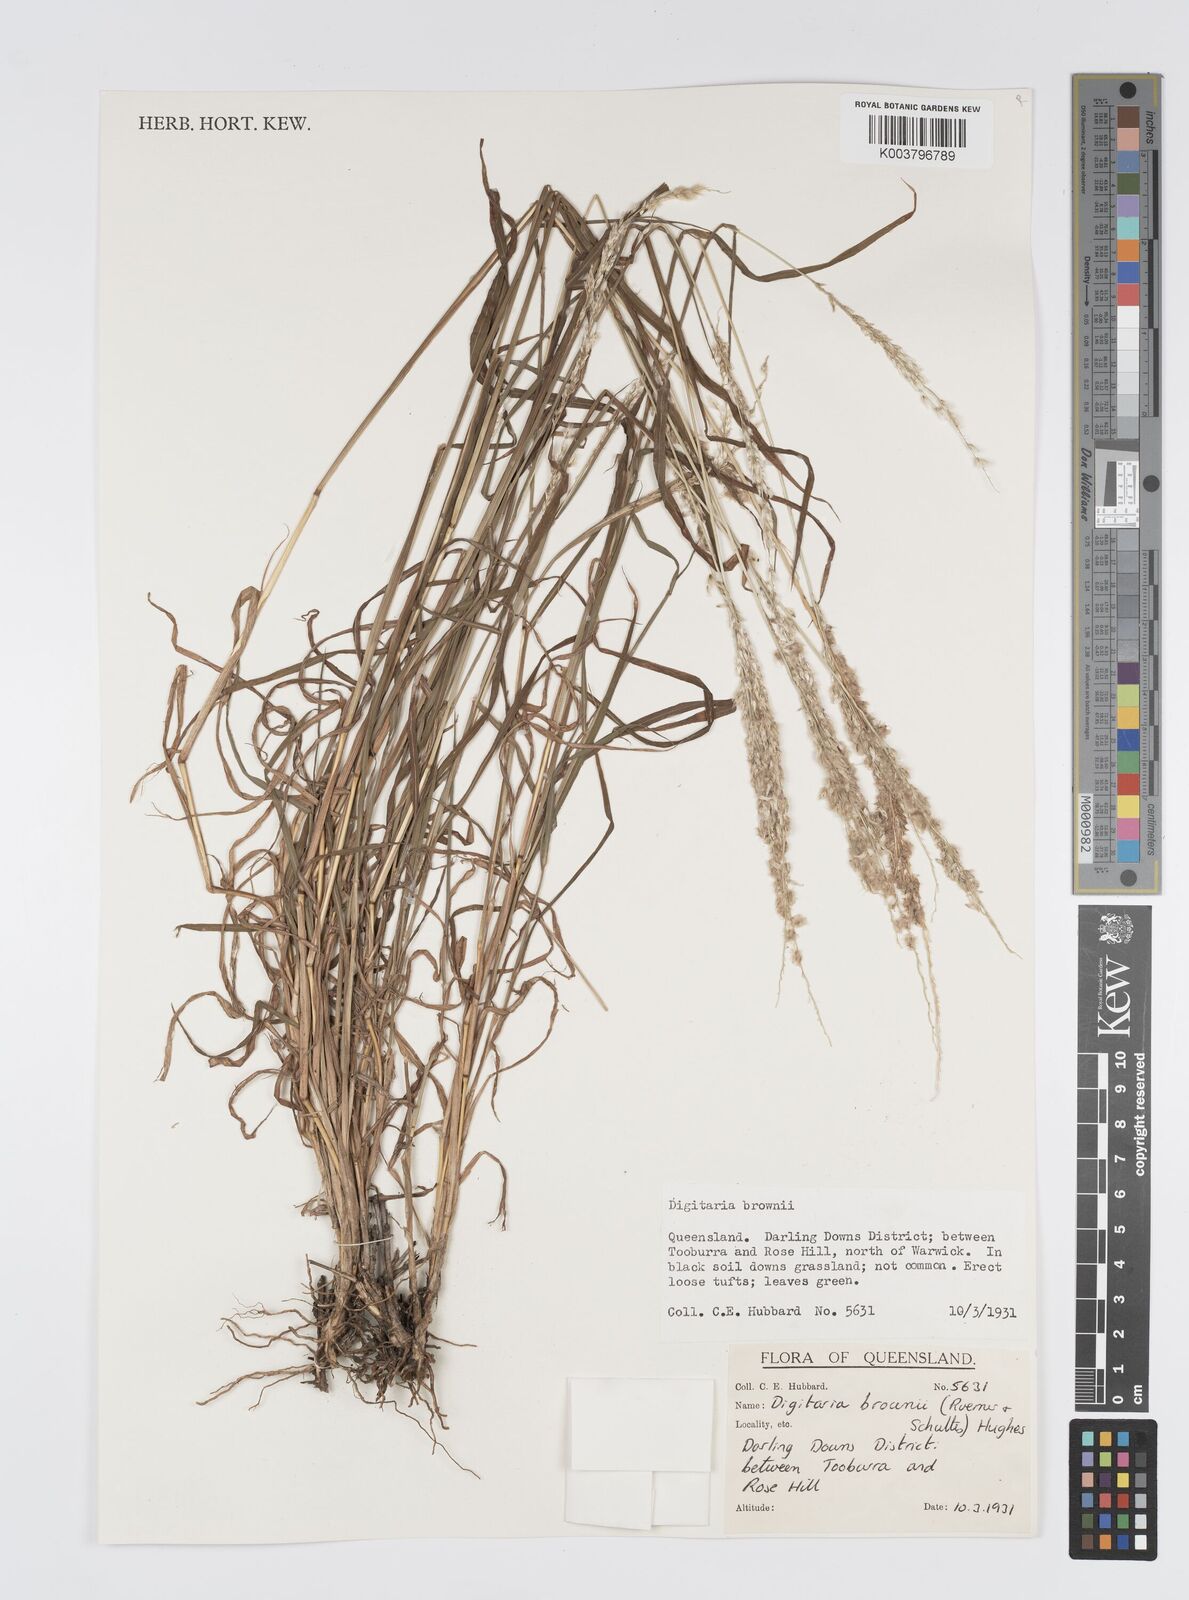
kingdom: Plantae
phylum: Tracheophyta
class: Liliopsida
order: Poales
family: Poaceae
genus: Digitaria
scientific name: Digitaria brownii
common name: Cotton grass
